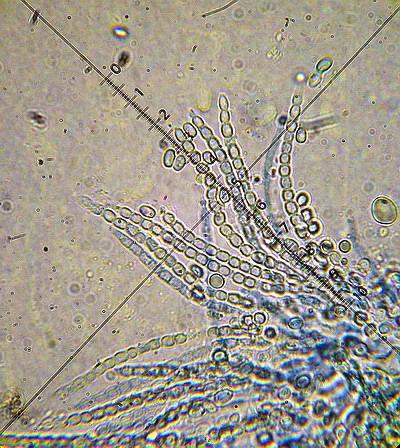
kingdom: Fungi
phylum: Ascomycota
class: Sordariomycetes
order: Hypocreales
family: Hypocreaceae
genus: Trichoderma
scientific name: Trichoderma pulvinatum
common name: snyltende kødkerne
